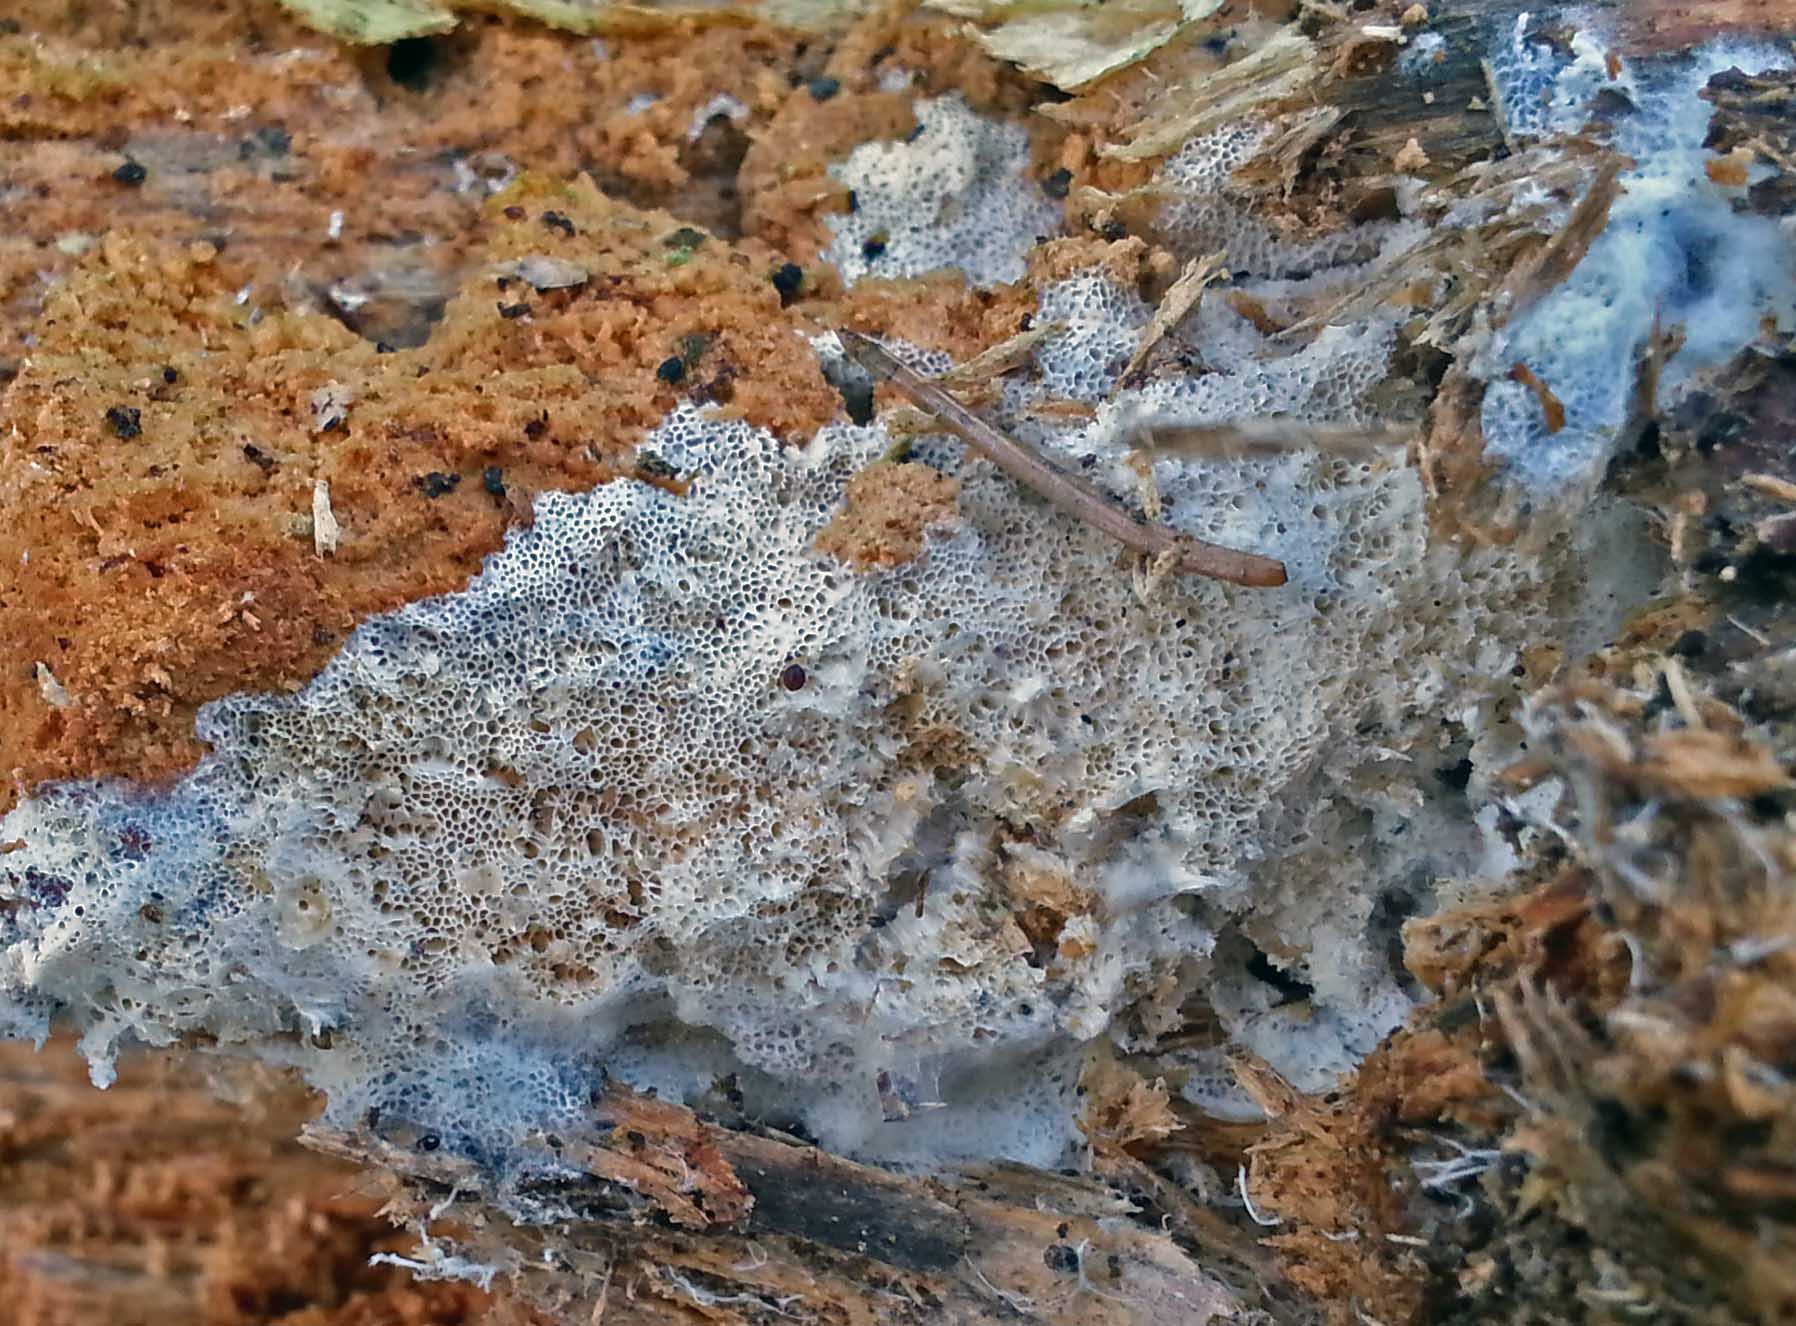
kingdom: Fungi
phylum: Basidiomycota
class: Agaricomycetes
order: Trechisporales
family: Sistotremataceae
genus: Trechispora
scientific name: Trechispora hymenocystis
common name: poret vathinde
